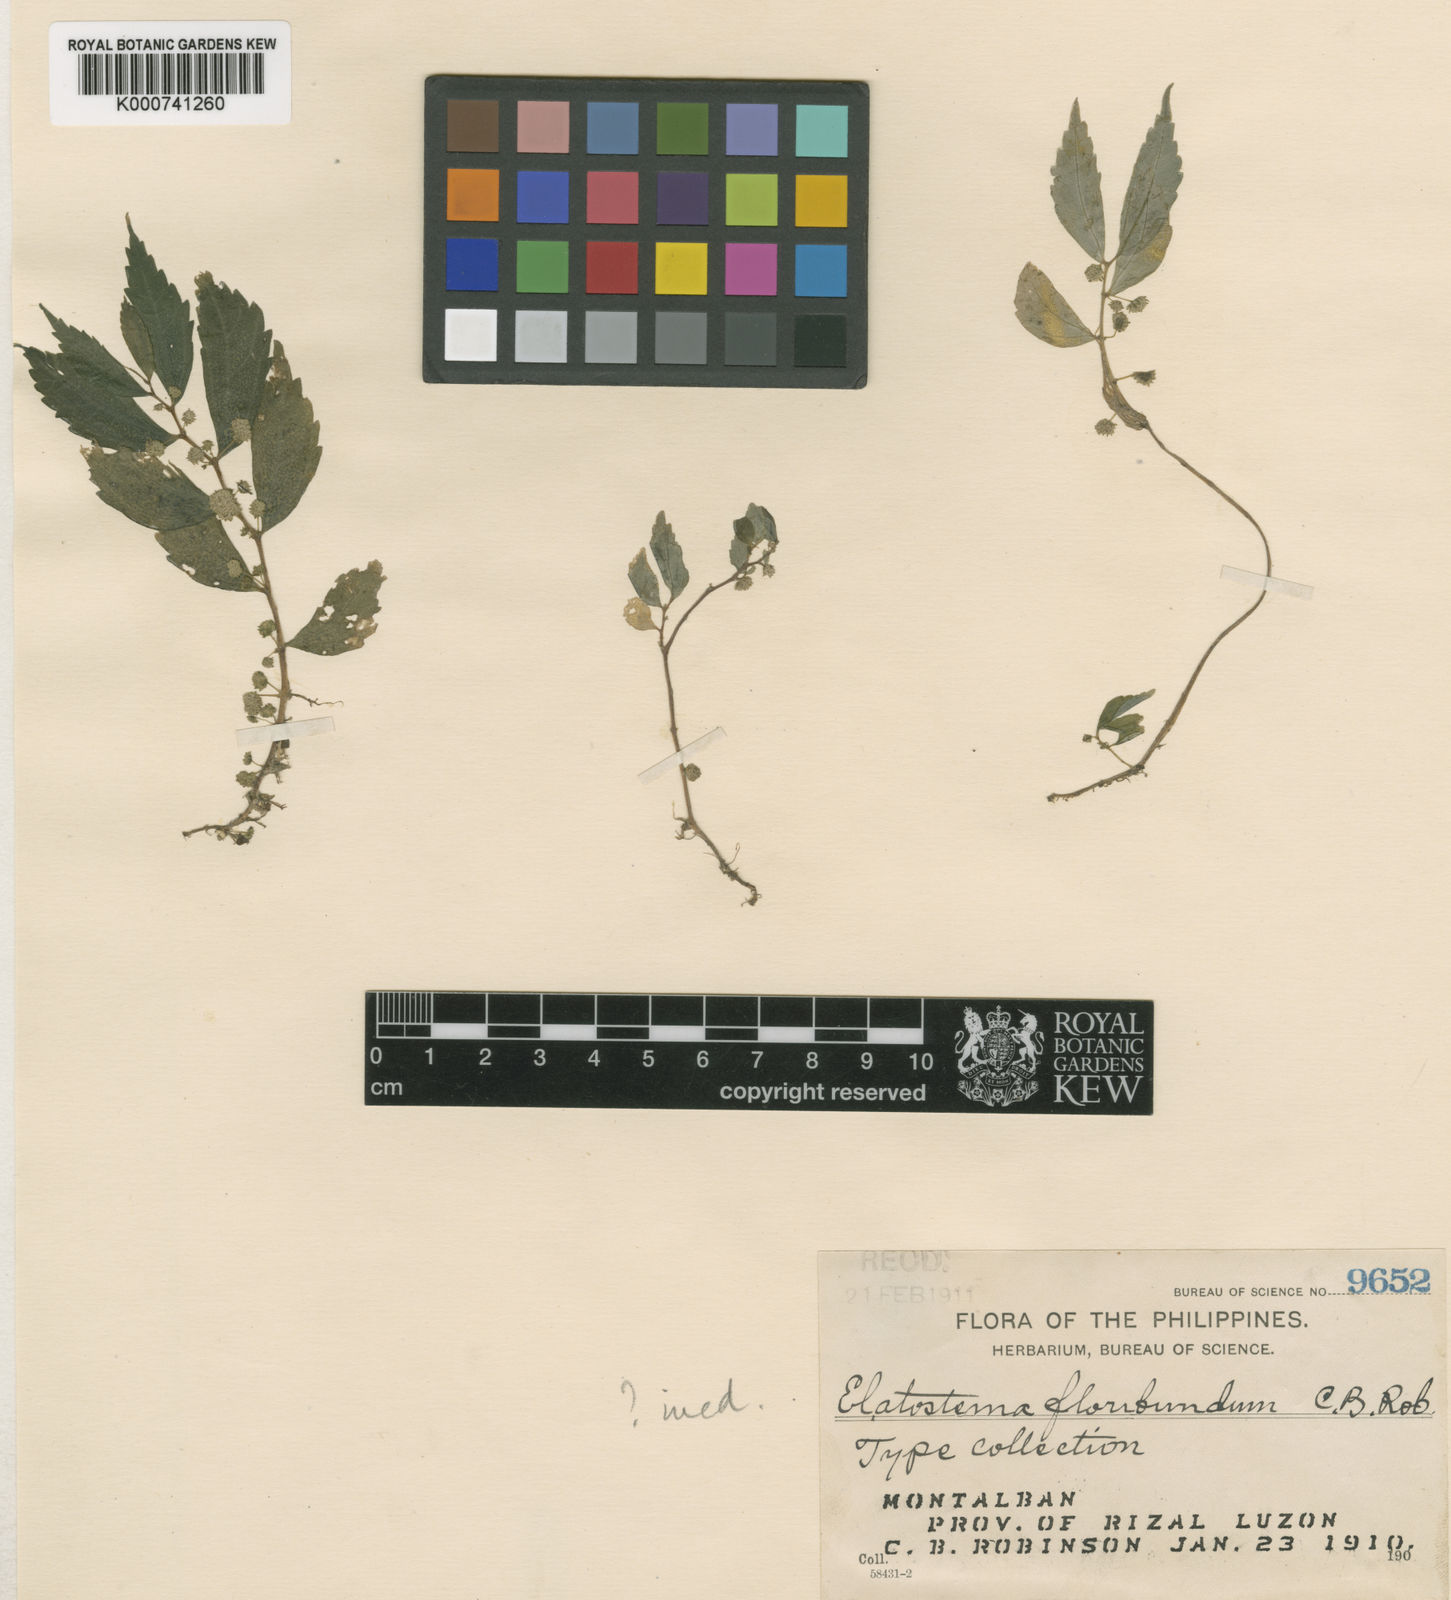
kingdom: Plantae
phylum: Tracheophyta
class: Magnoliopsida
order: Rosales
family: Urticaceae
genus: Elatostema
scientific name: Elatostema
